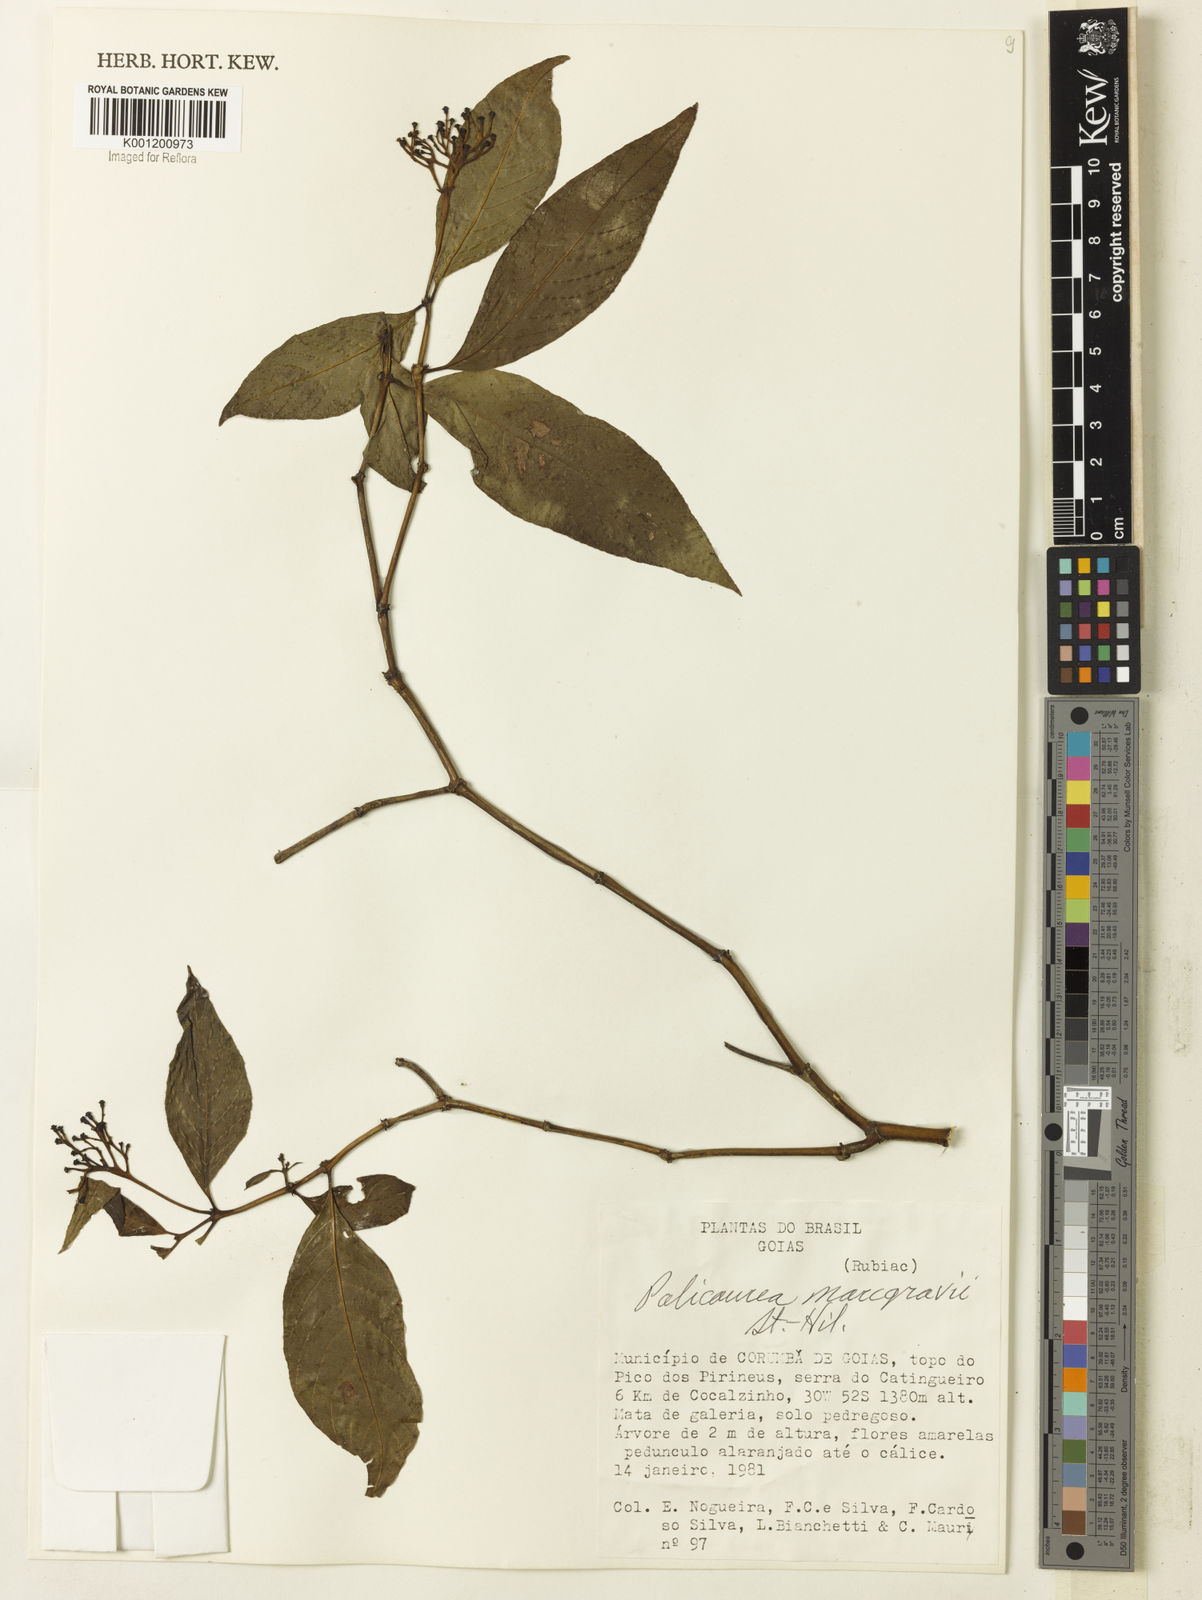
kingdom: Plantae
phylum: Tracheophyta
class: Magnoliopsida
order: Gentianales
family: Rubiaceae
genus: Palicourea
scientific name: Palicourea marcgravii
